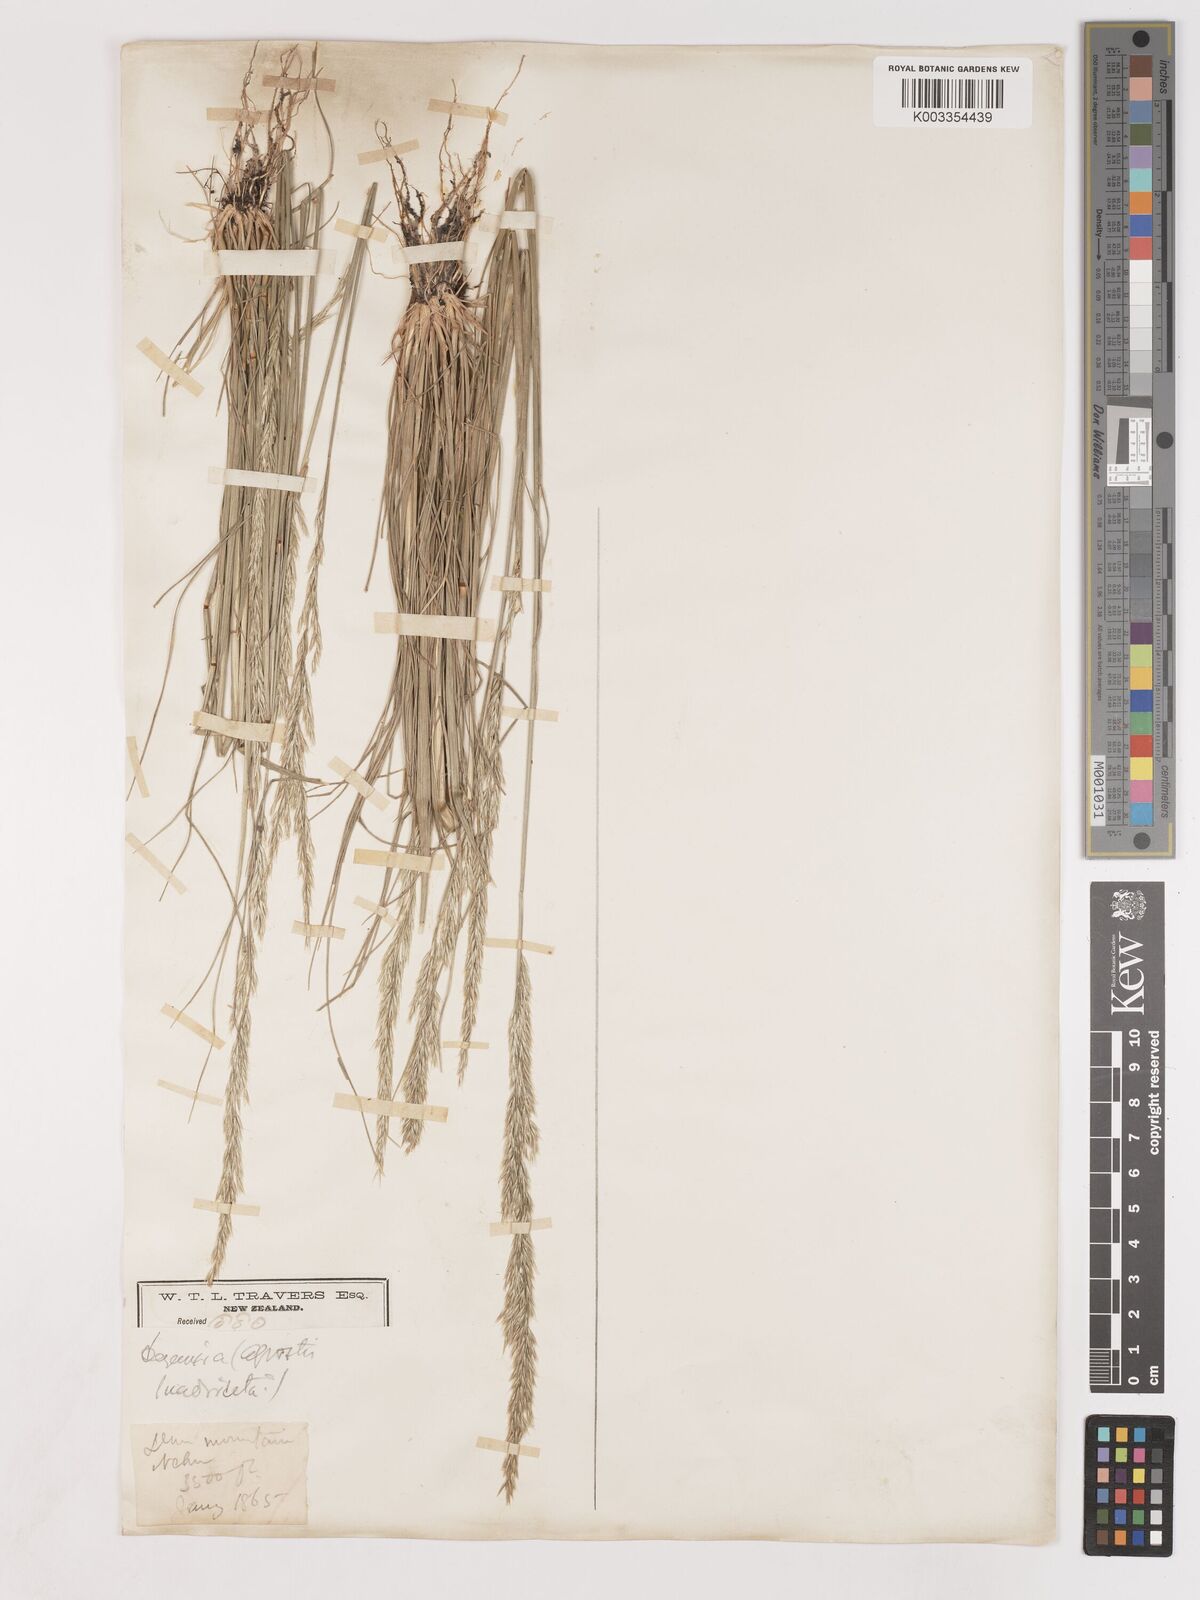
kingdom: Plantae
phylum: Tracheophyta
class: Liliopsida
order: Poales
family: Poaceae
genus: Calamagrostis
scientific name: Calamagrostis quadriseta
